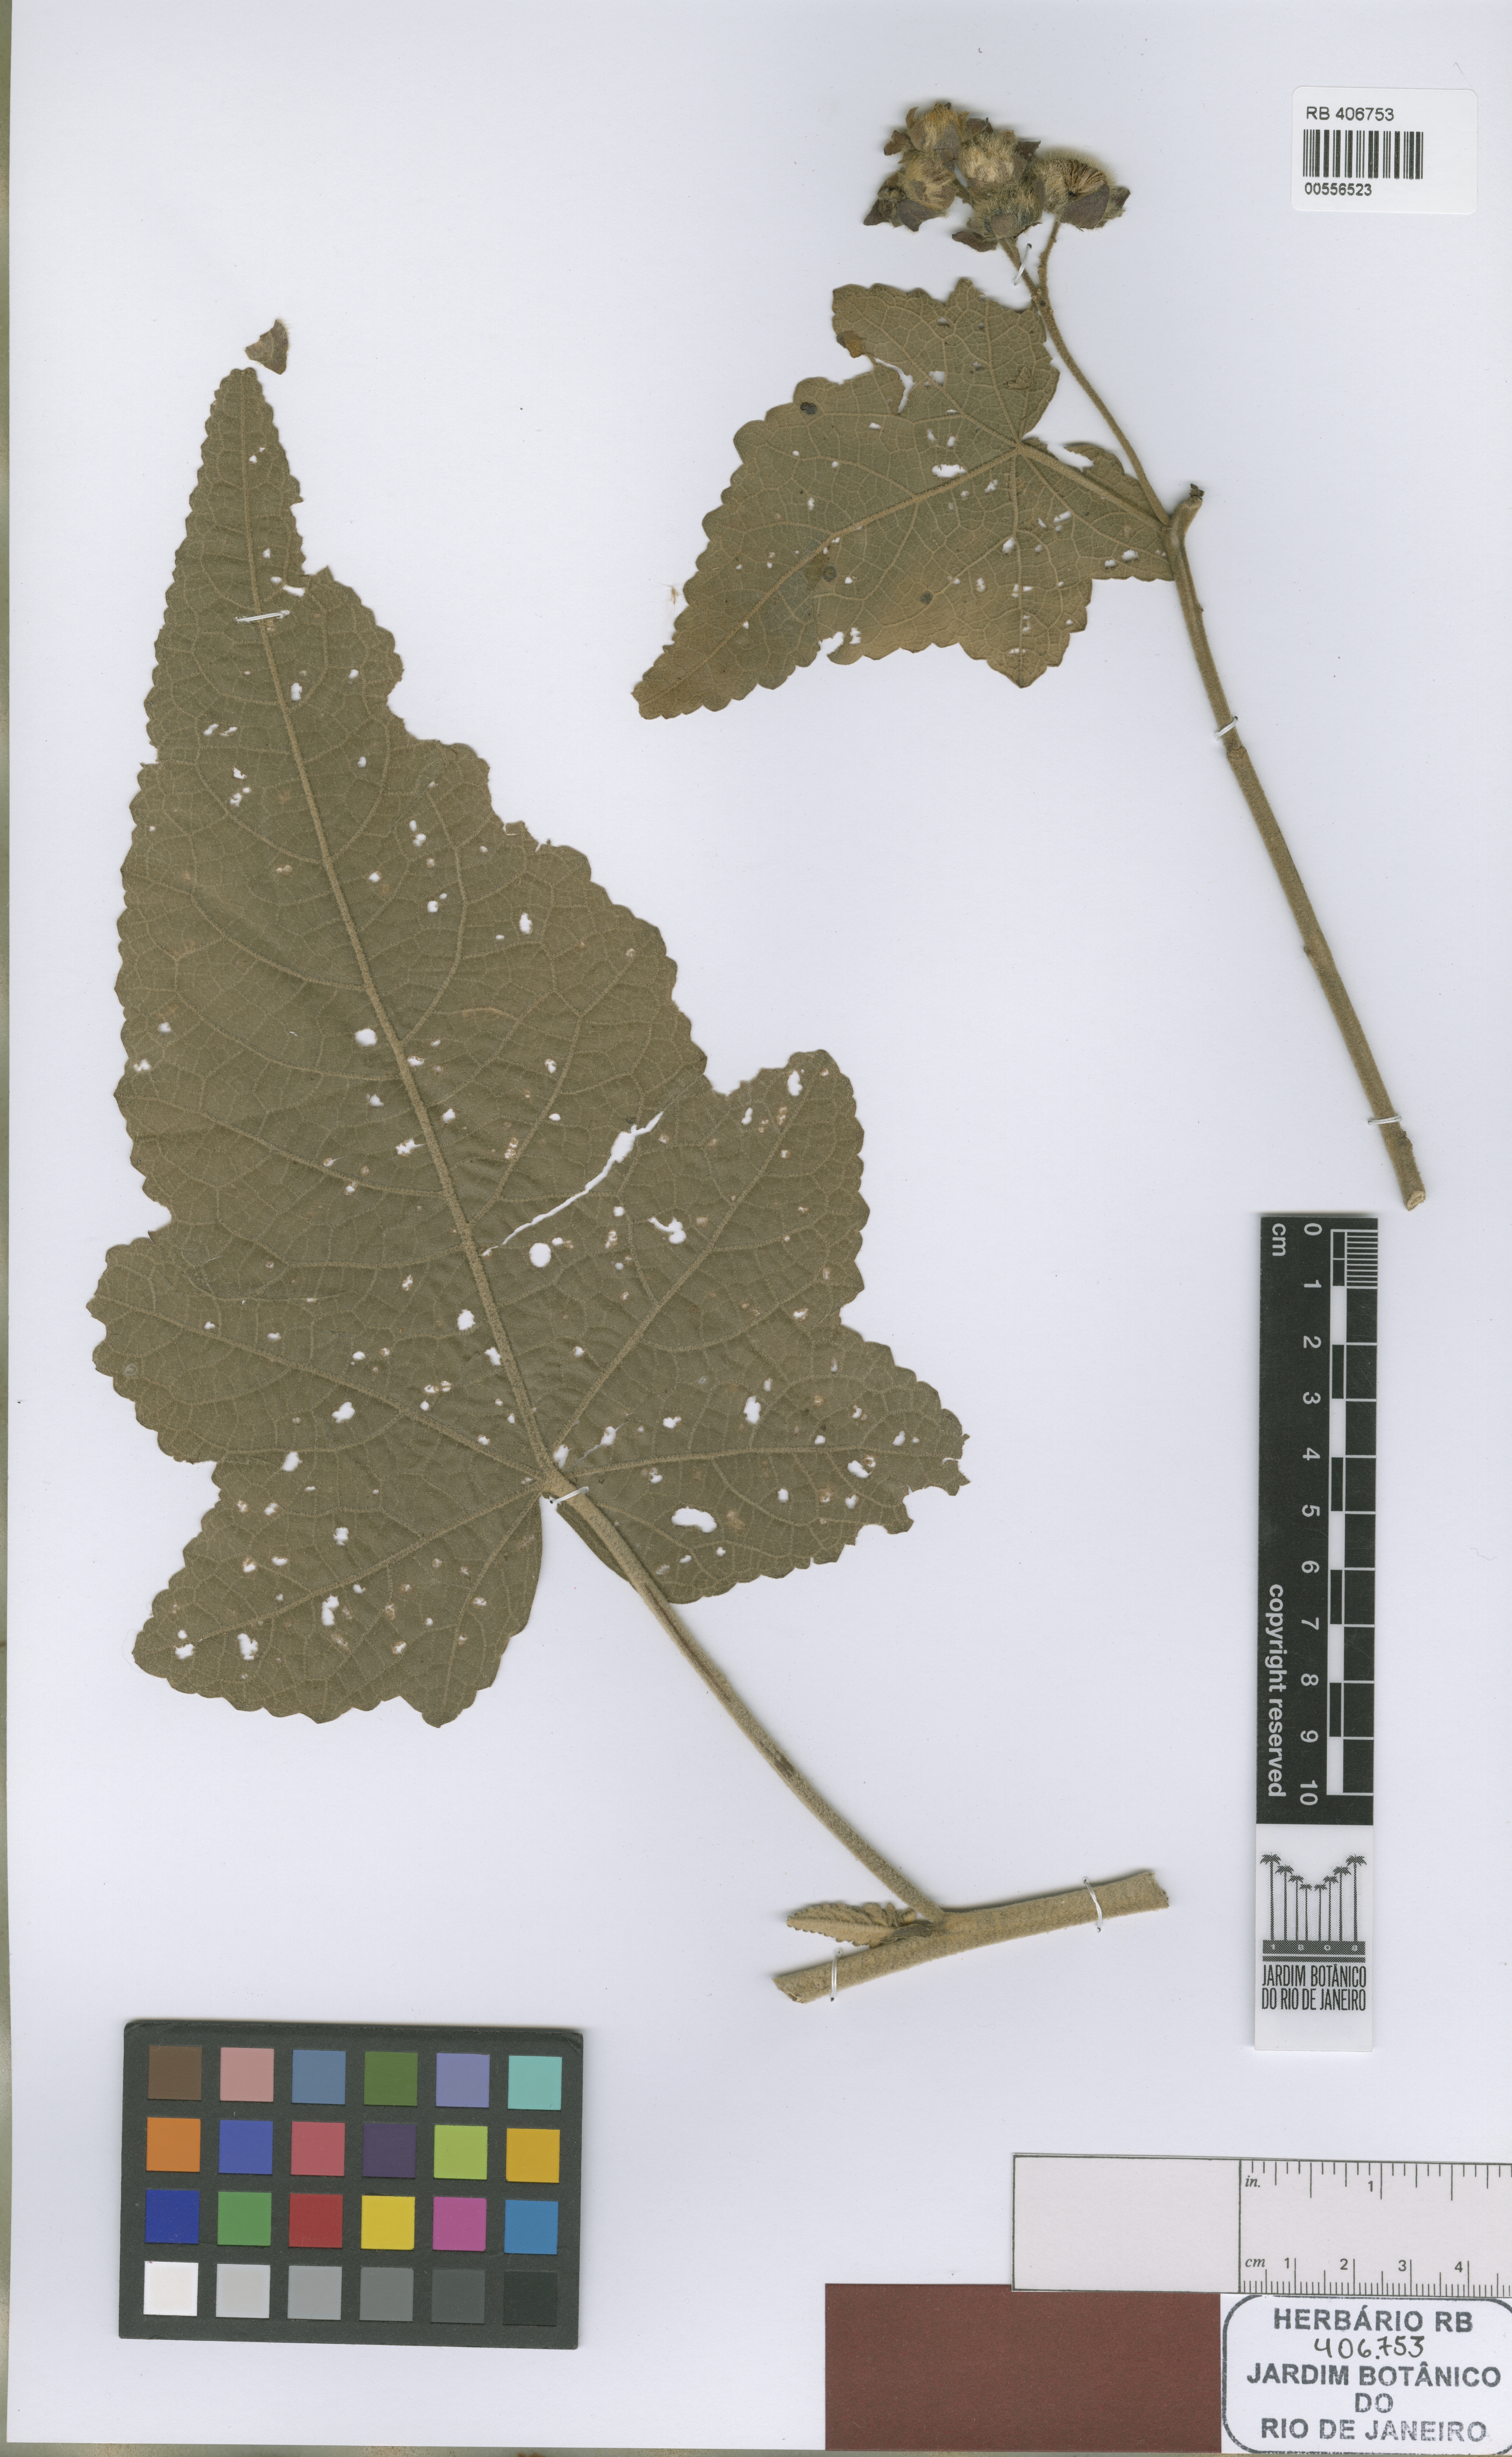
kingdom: Plantae
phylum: Tracheophyta
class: Magnoliopsida
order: Malvales
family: Malvaceae
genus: Monteiroa
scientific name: Monteiroa hatschbachii
